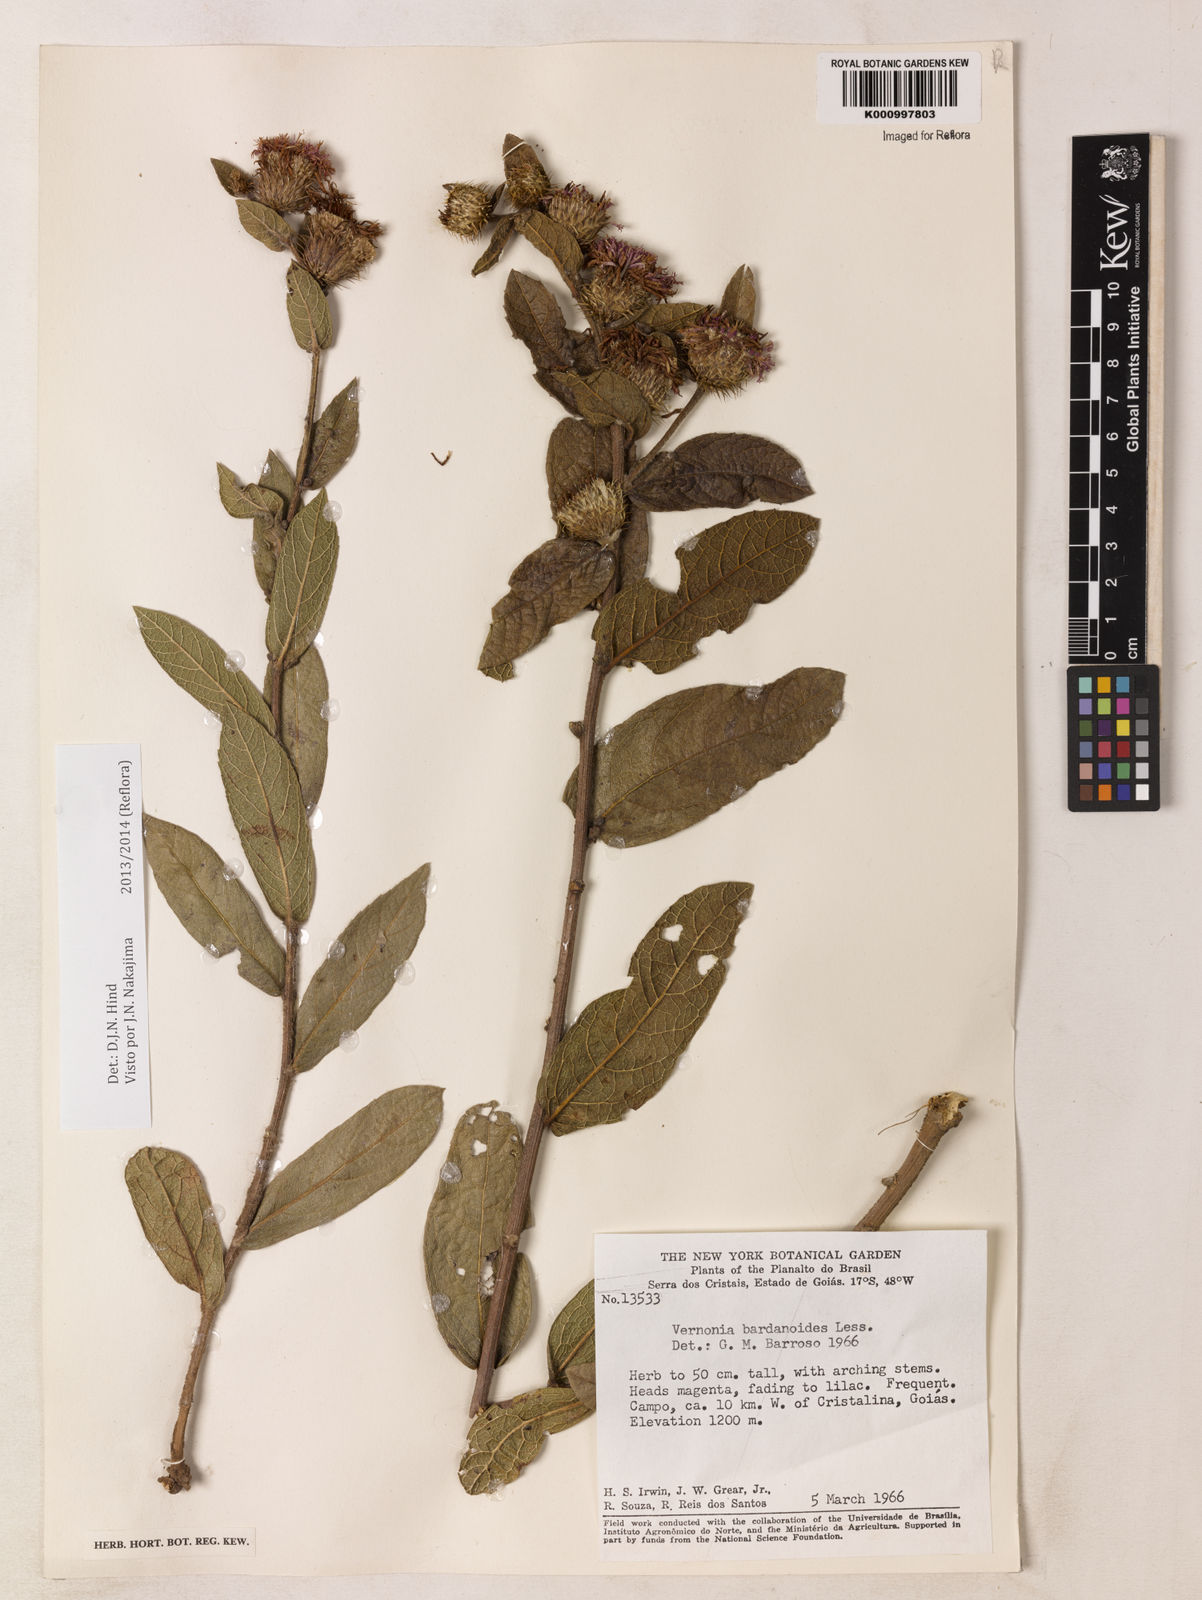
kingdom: Plantae
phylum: Tracheophyta
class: Magnoliopsida
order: Asterales
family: Asteraceae
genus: Lessingianthus
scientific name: Lessingianthus bardanioides
